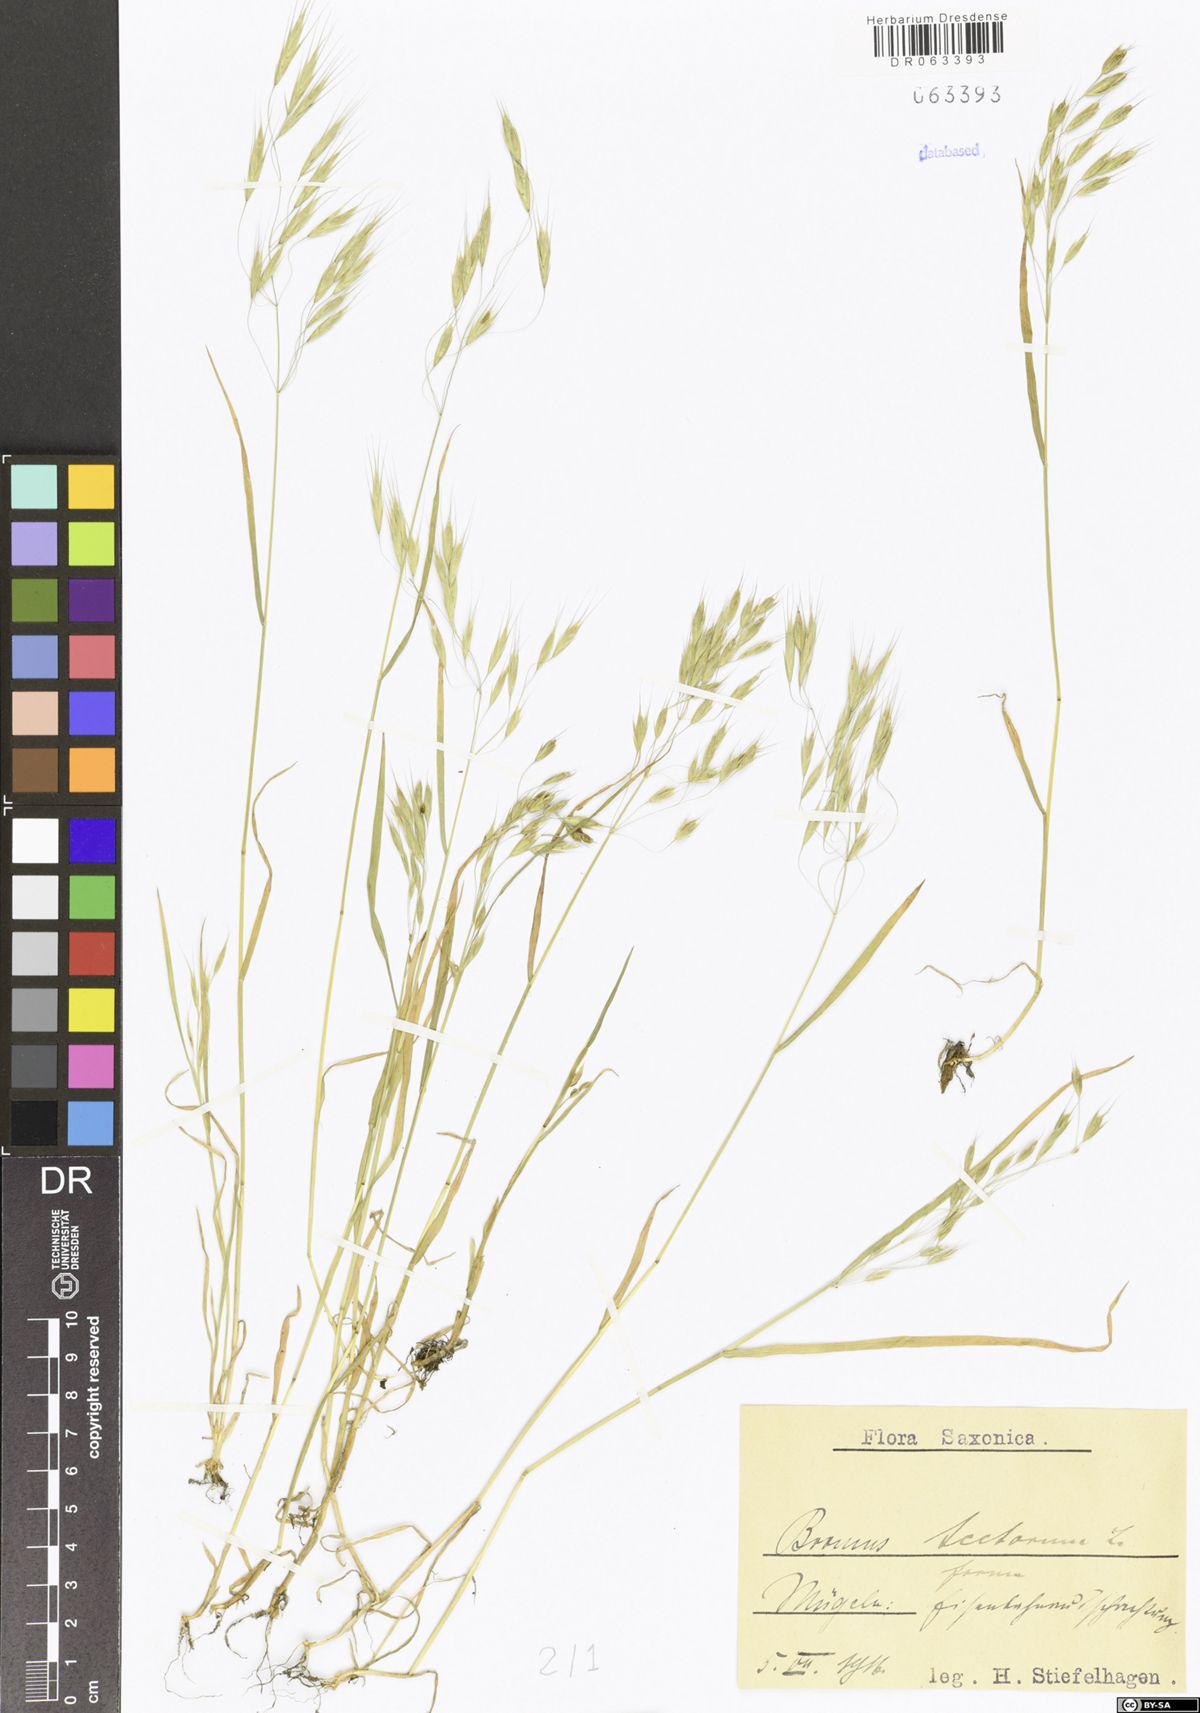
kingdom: Plantae
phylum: Tracheophyta
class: Liliopsida
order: Poales
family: Poaceae
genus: Bromus
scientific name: Bromus tectorum
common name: Cheatgrass
